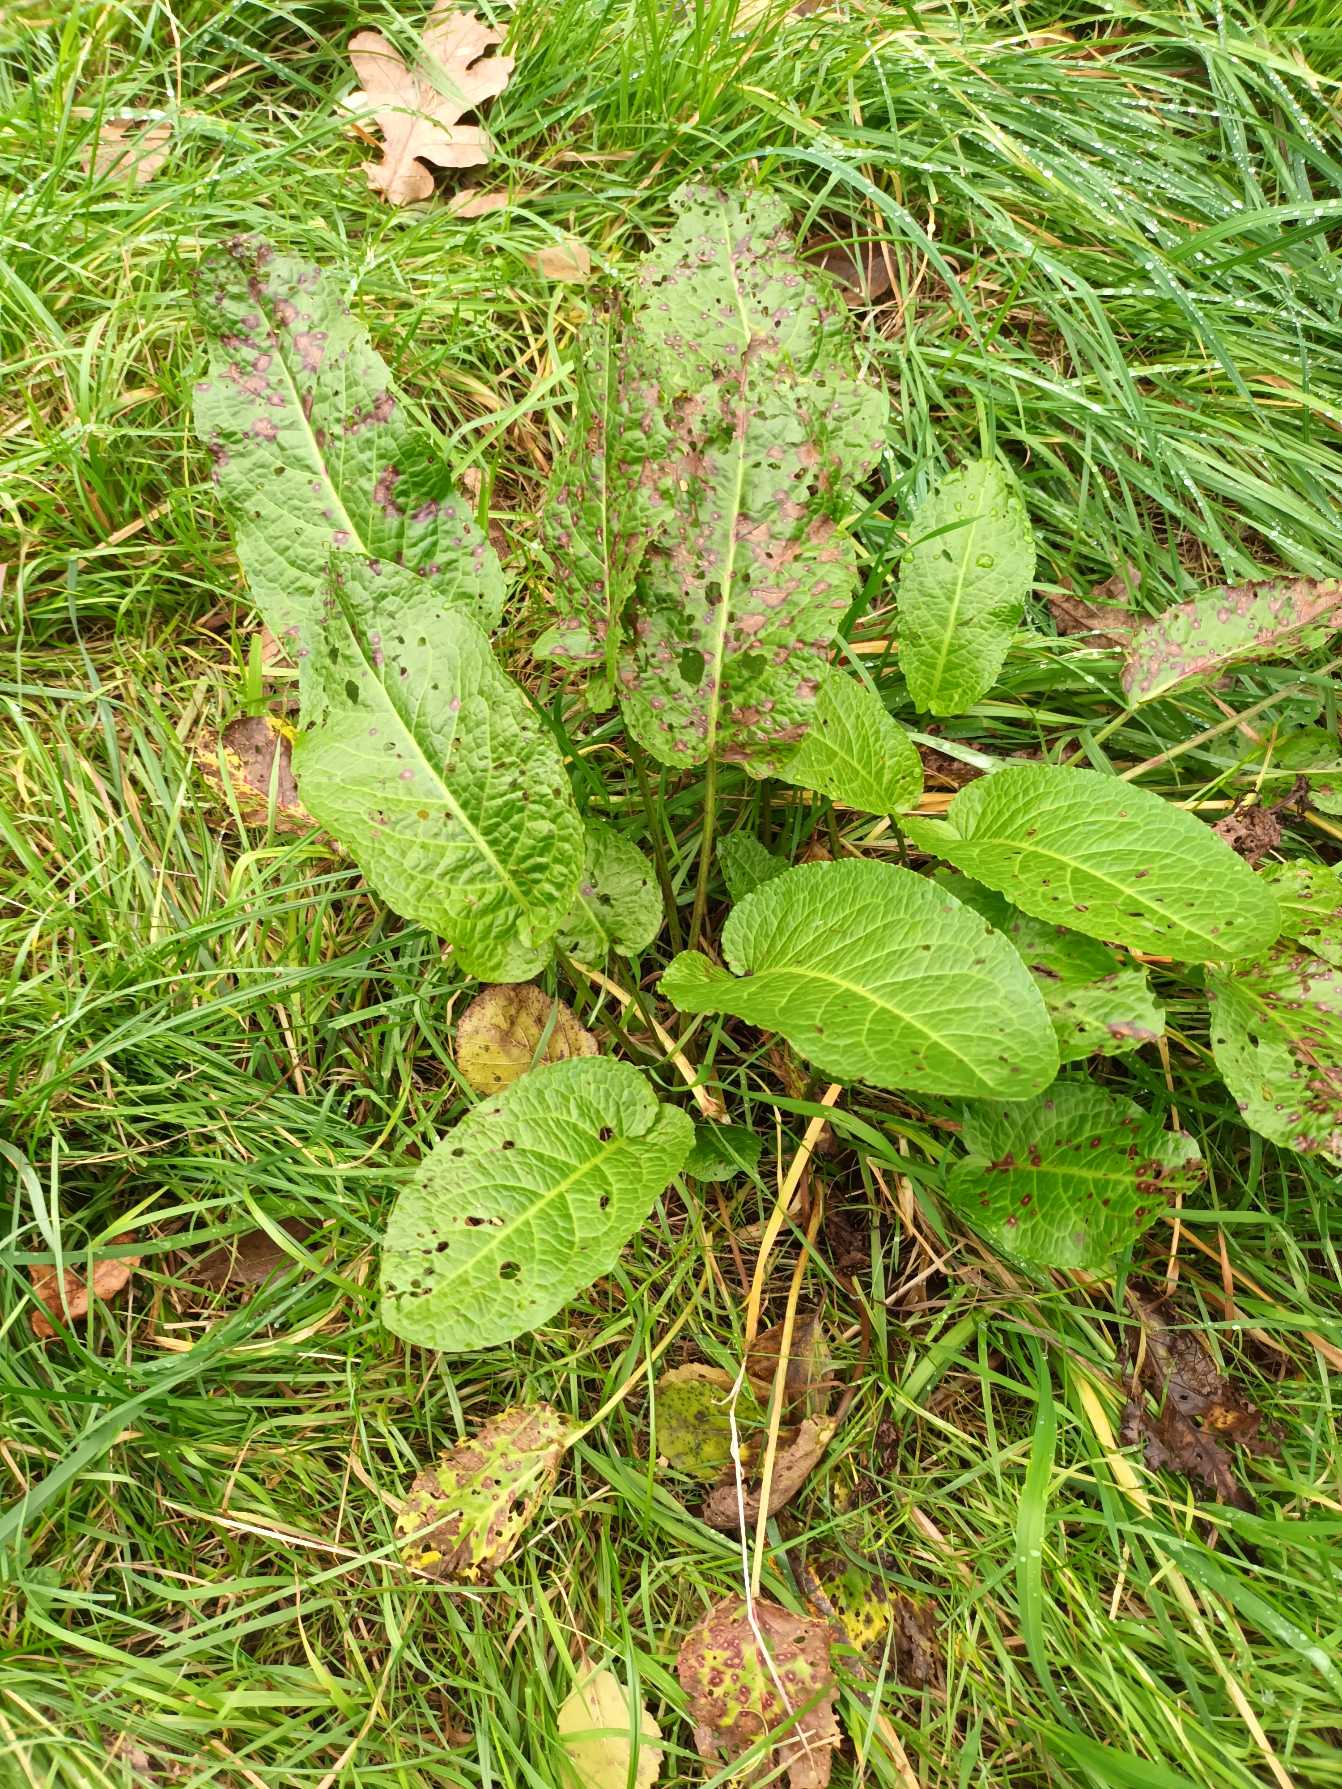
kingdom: Plantae
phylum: Tracheophyta
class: Magnoliopsida
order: Caryophyllales
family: Polygonaceae
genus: Rumex
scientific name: Rumex obtusifolius
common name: Butbladet skræppe
